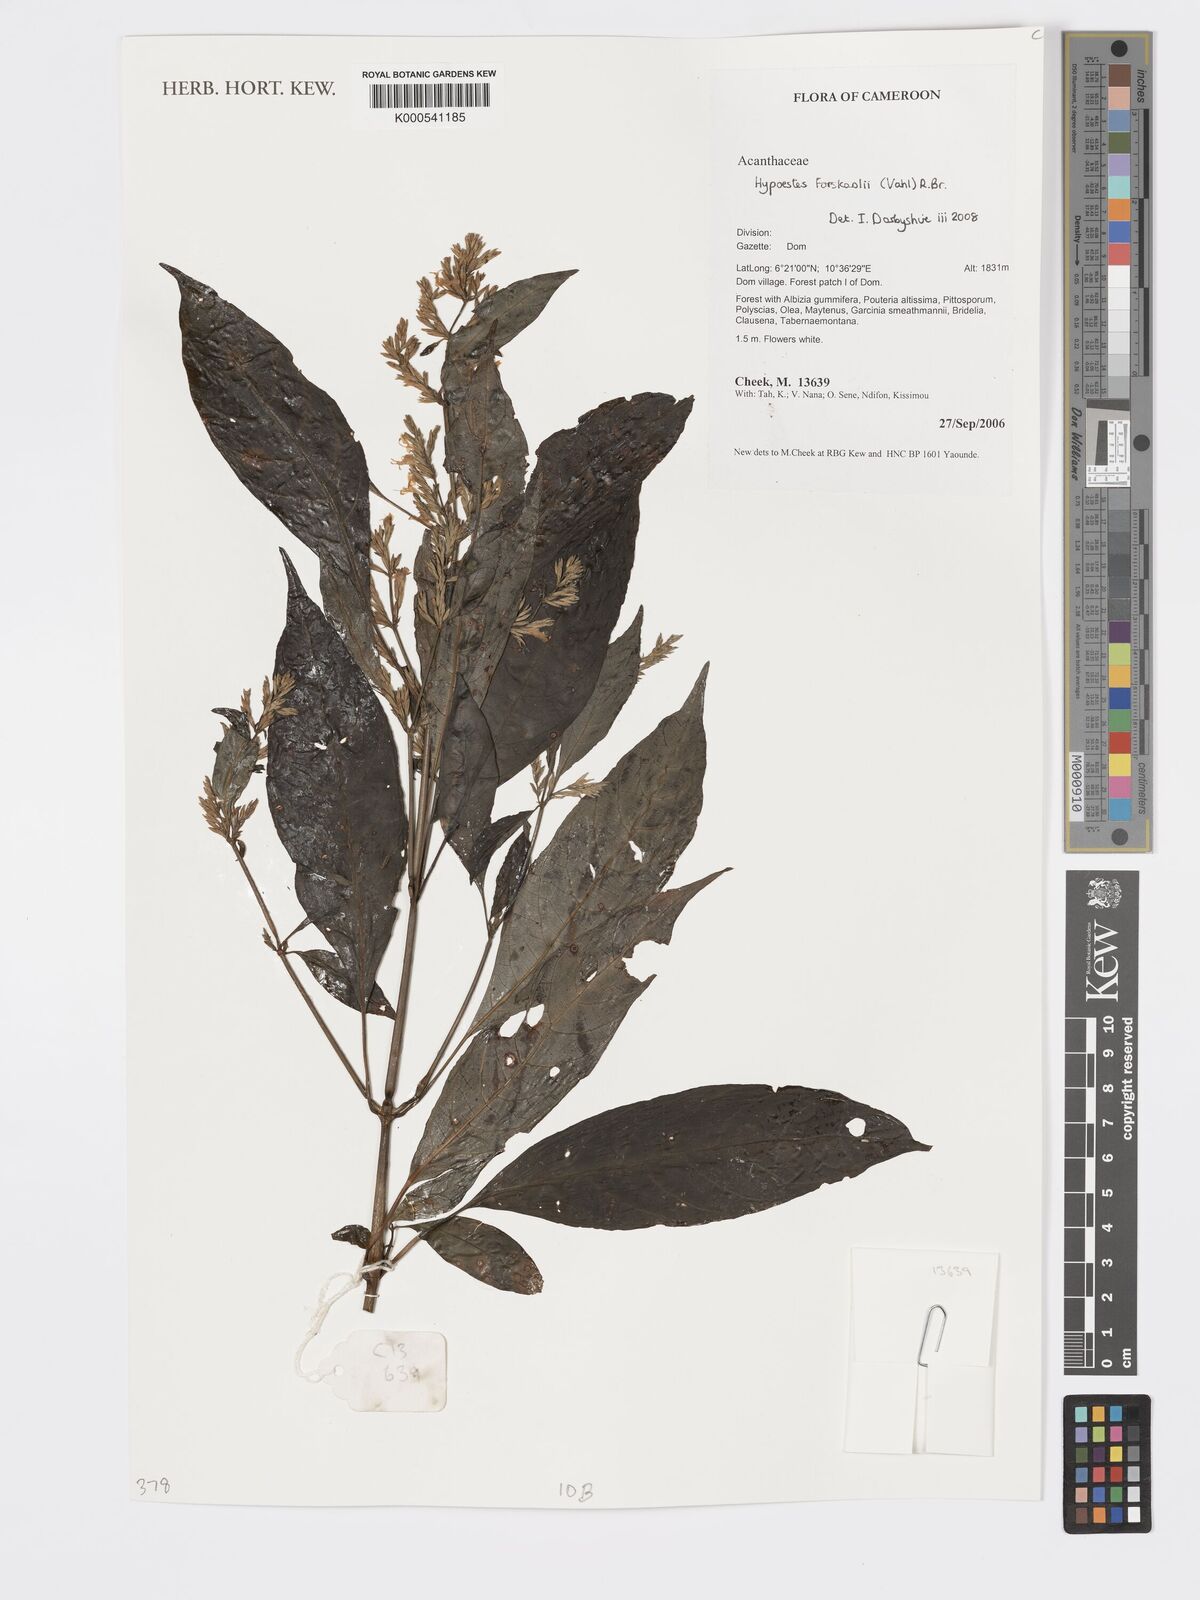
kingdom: Plantae
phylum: Tracheophyta
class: Magnoliopsida
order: Lamiales
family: Acanthaceae
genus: Hypoestes
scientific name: Hypoestes forskaolii
